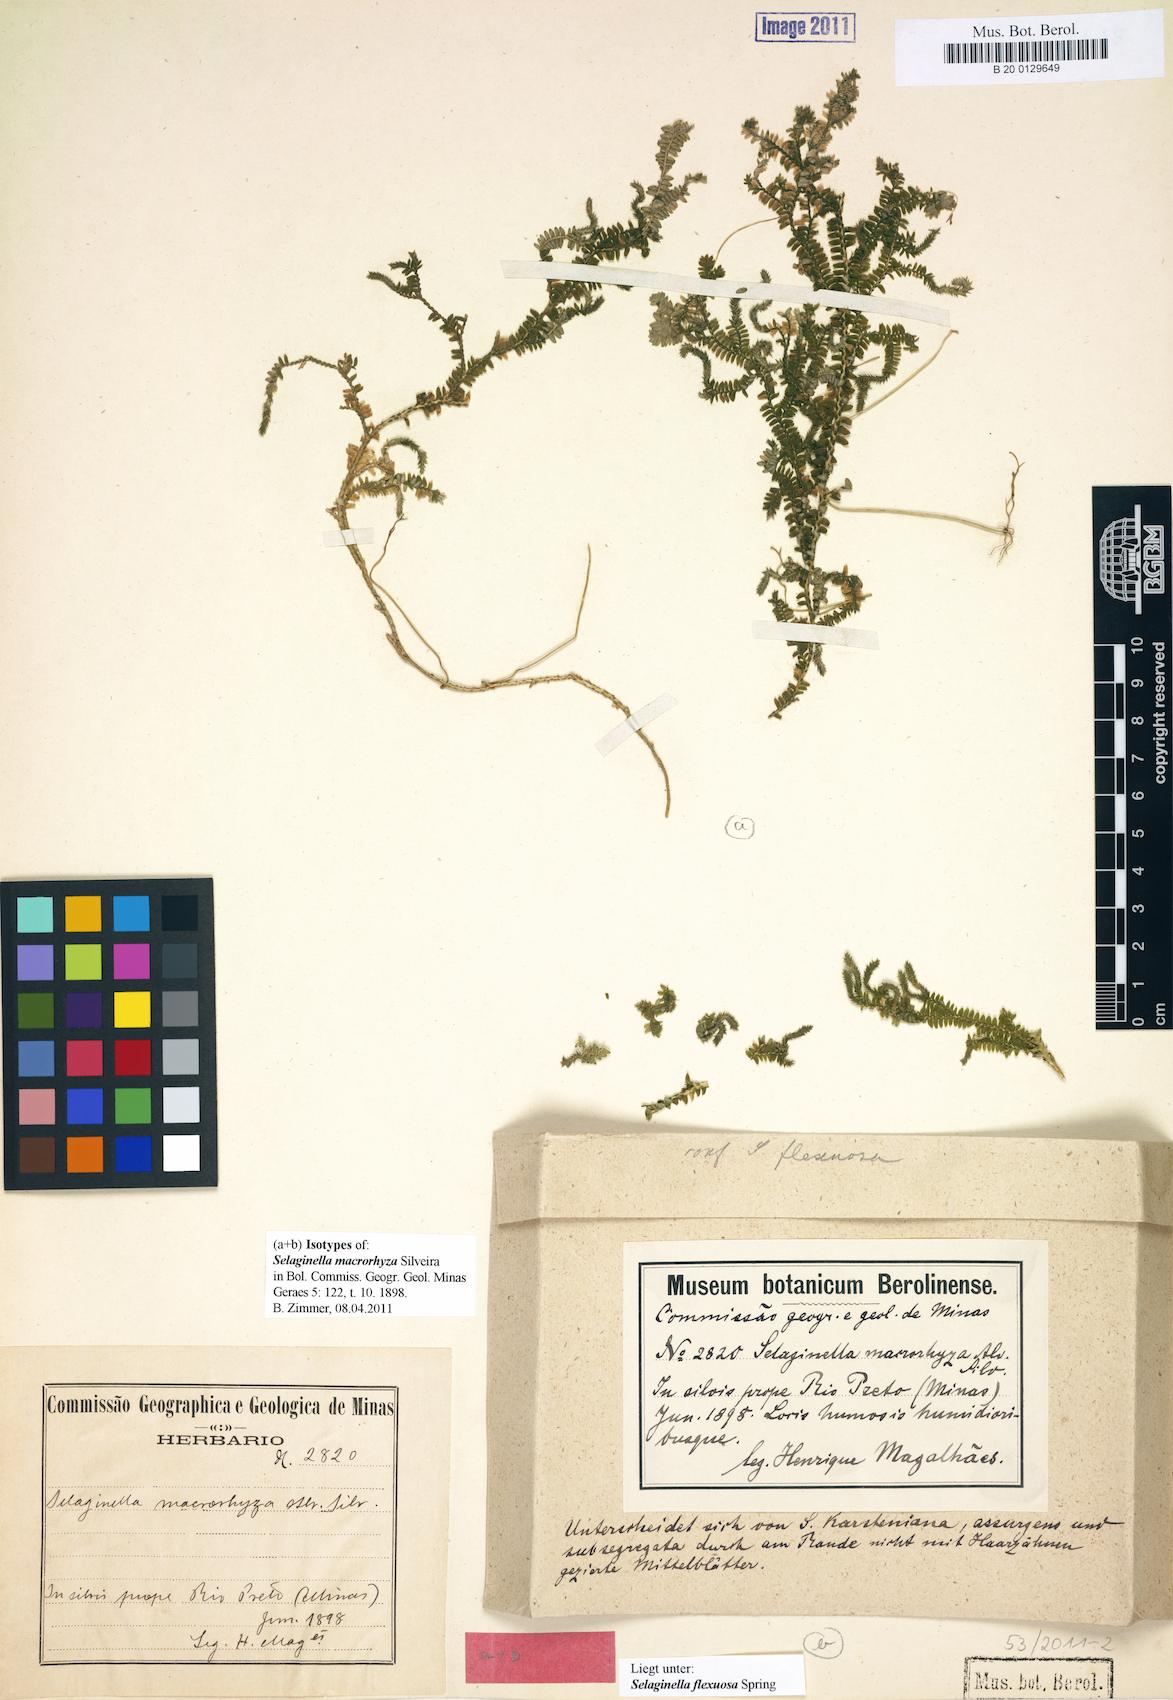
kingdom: Plantae
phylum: Tracheophyta
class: Lycopodiopsida
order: Selaginellales
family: Selaginellaceae
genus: Selaginella
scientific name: Selaginella flexuosa
